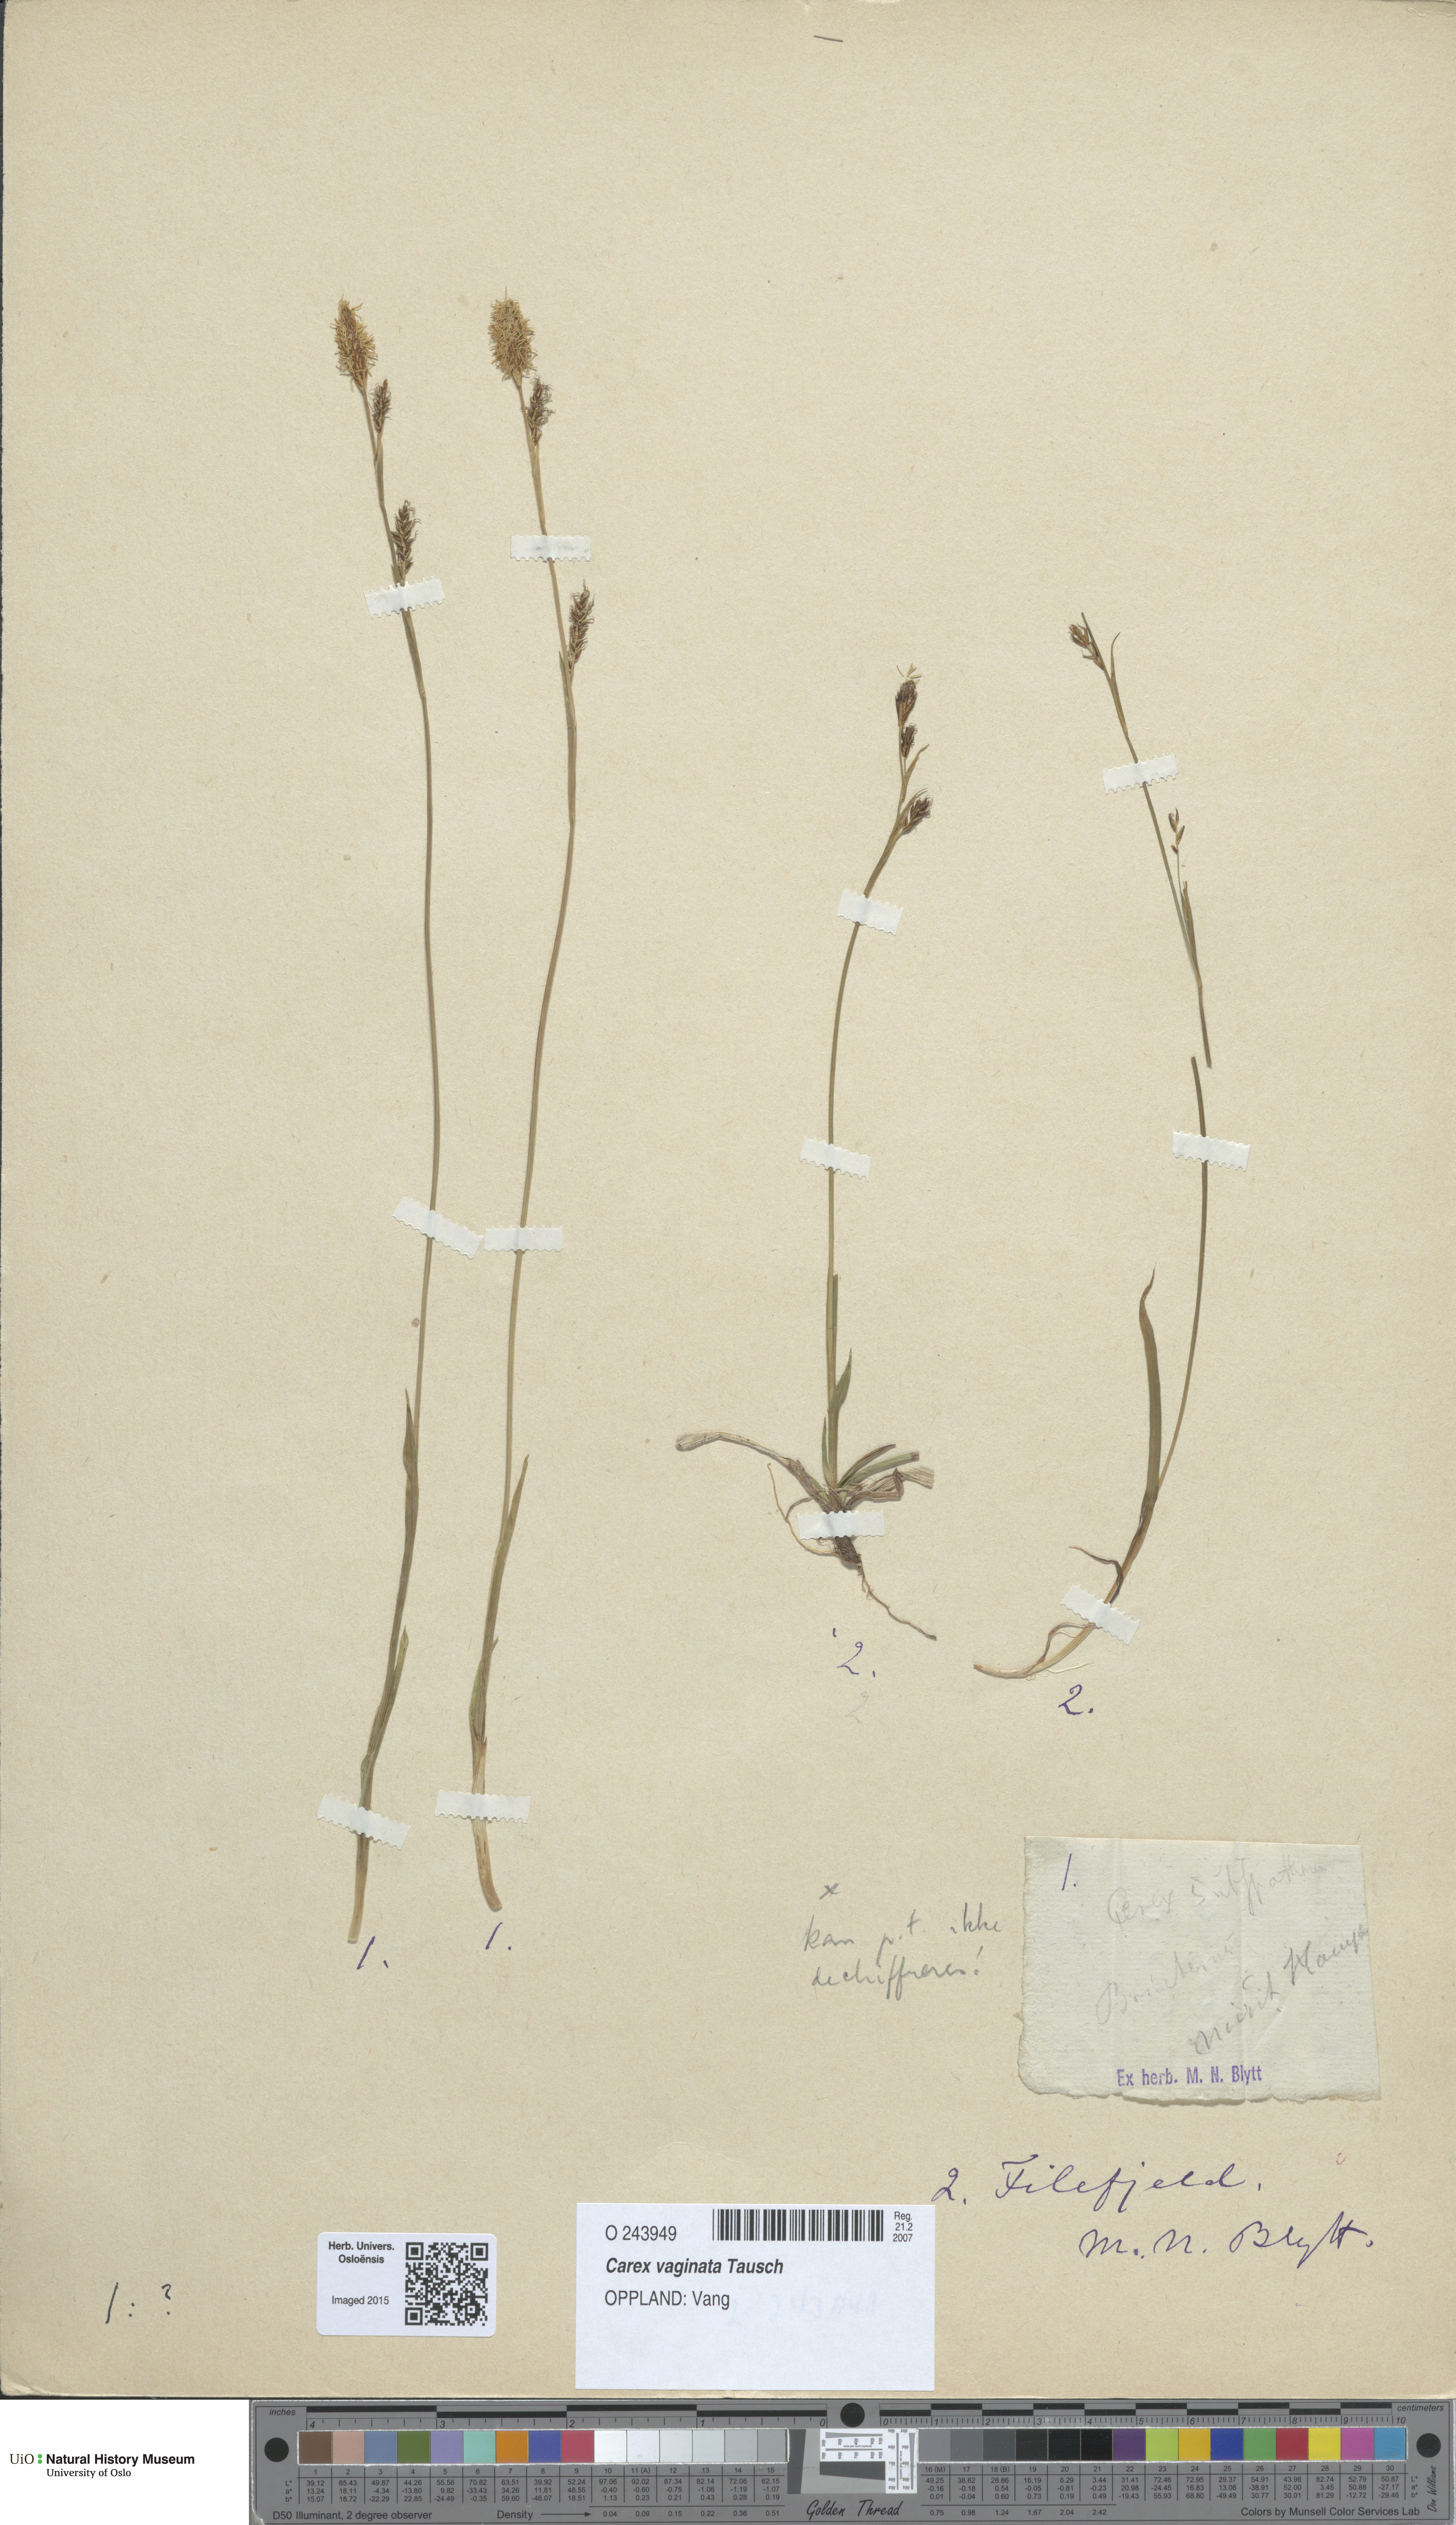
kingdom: Plantae
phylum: Tracheophyta
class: Liliopsida
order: Poales
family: Cyperaceae
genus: Carex
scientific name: Carex vaginata
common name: Sheathed sedge
